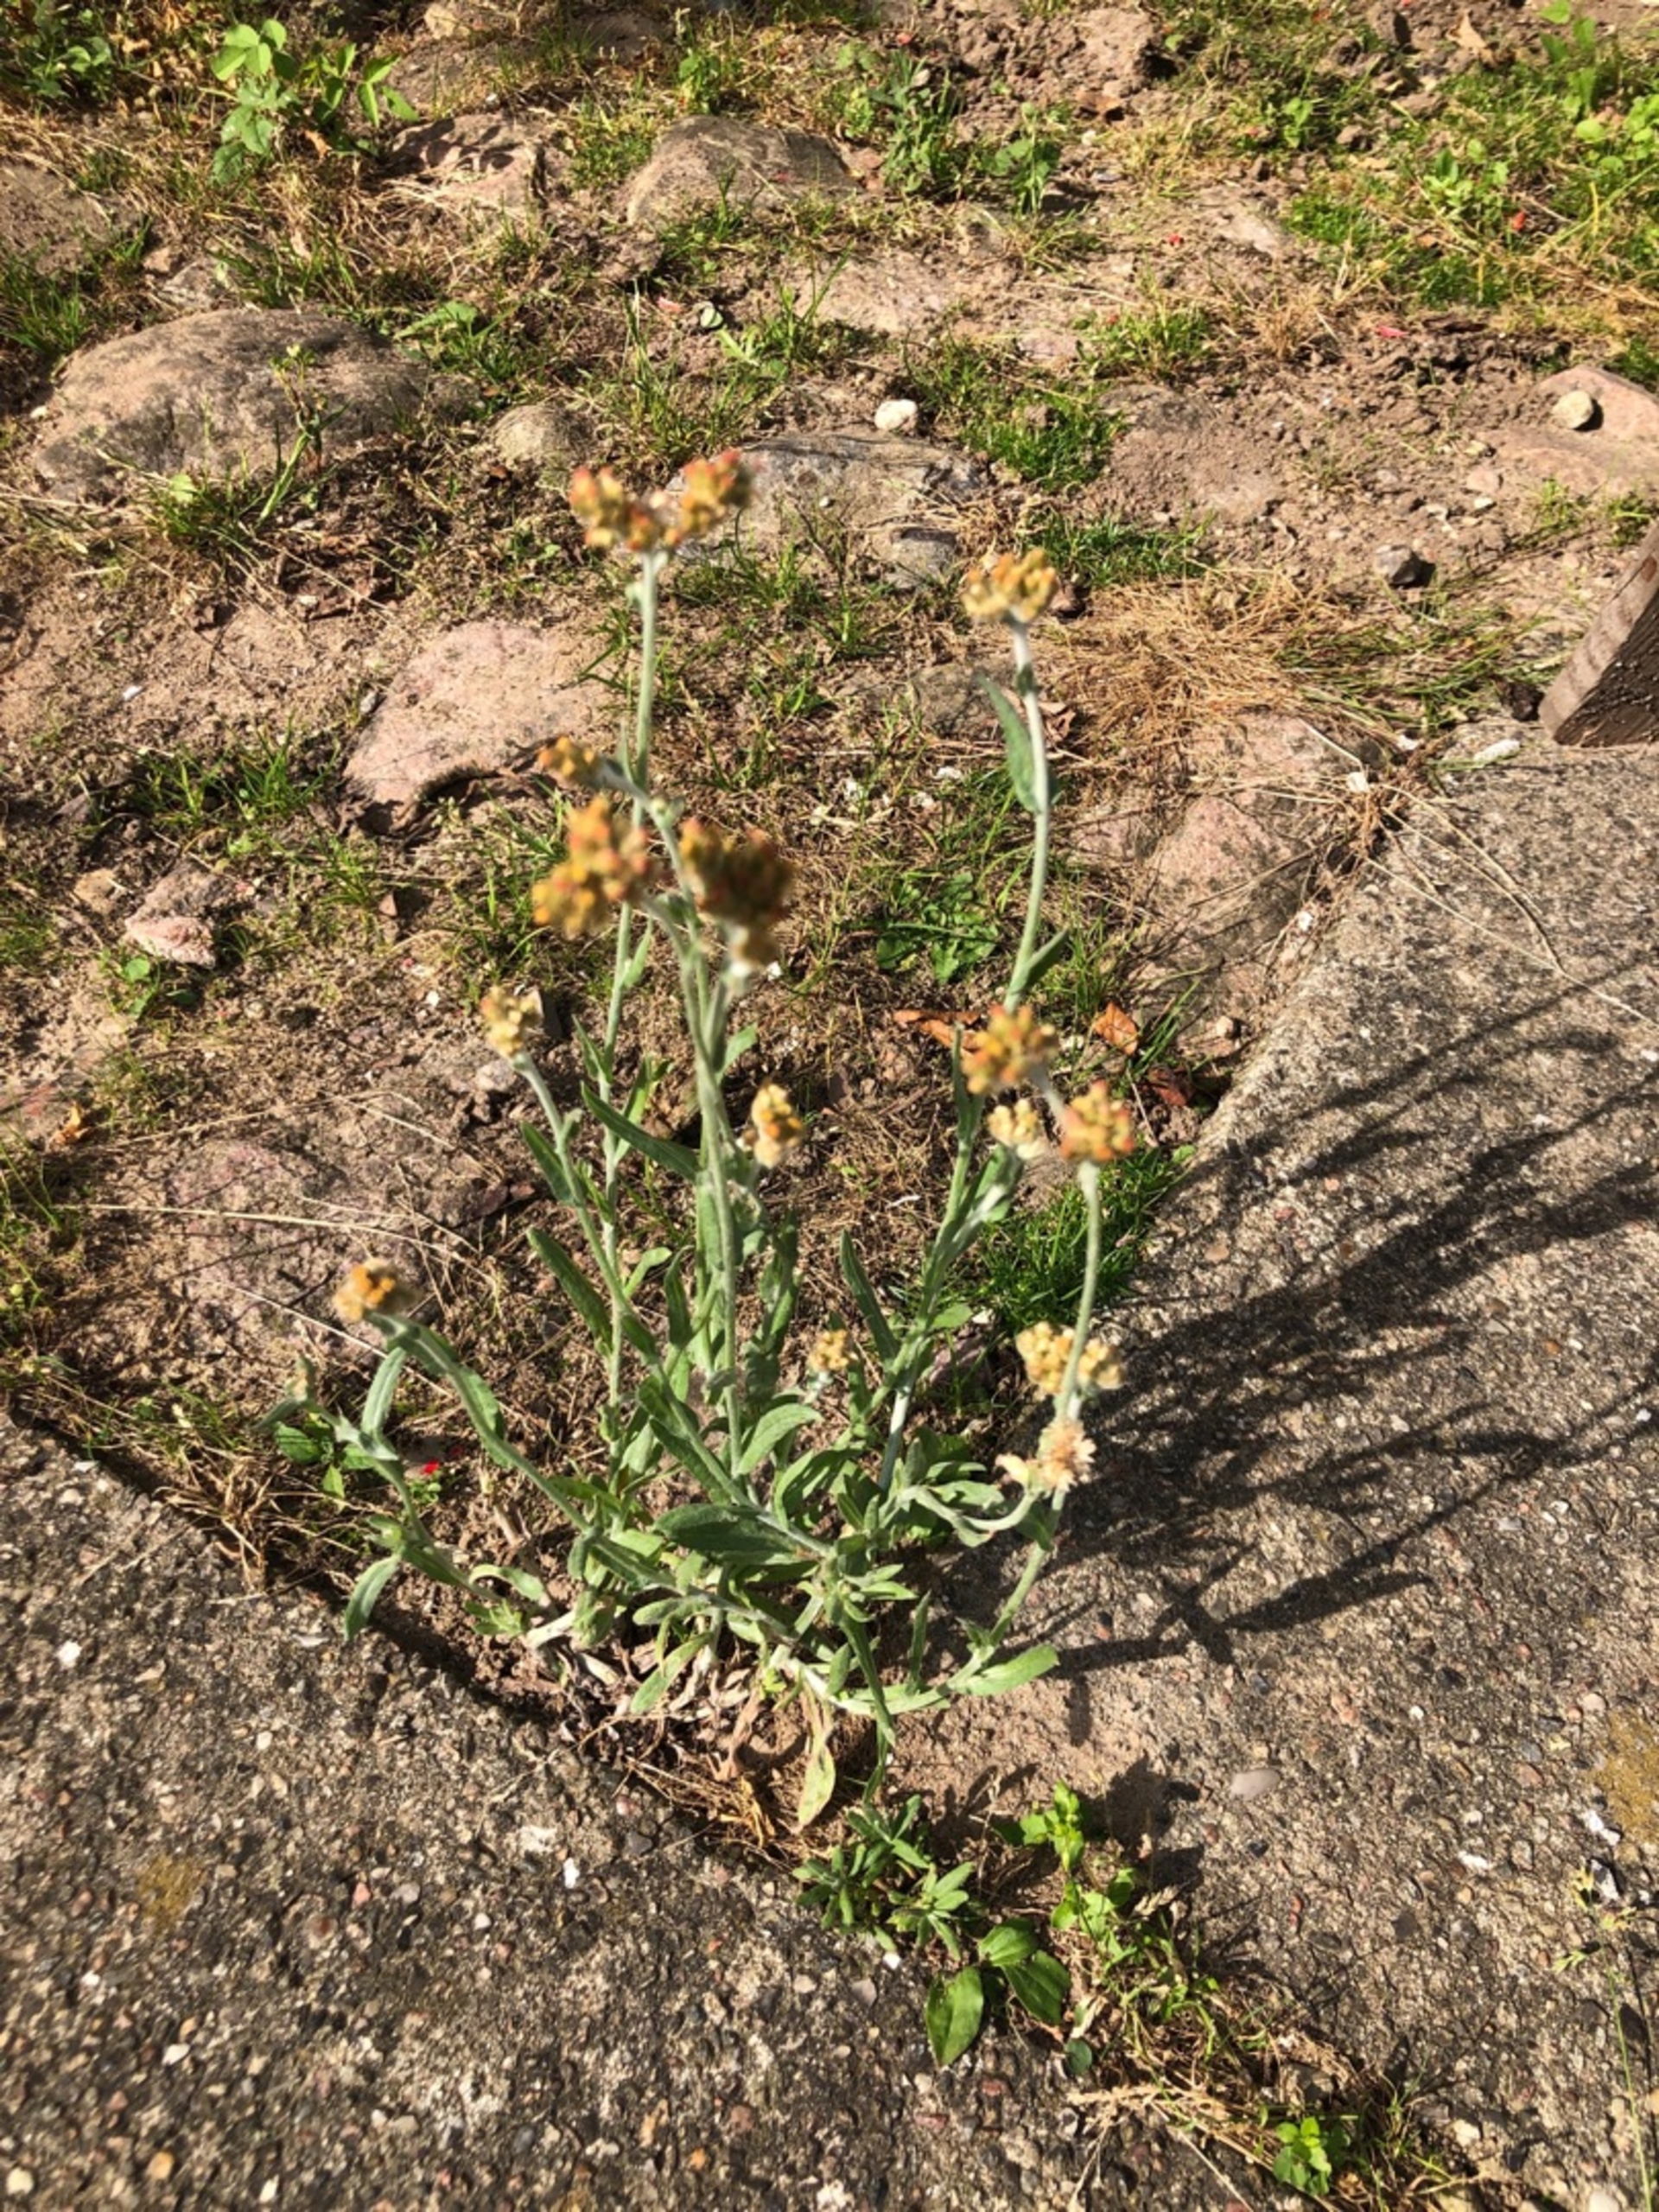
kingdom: Plantae
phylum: Tracheophyta
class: Magnoliopsida
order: Asterales
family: Asteraceae
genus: Helichrysum
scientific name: Helichrysum luteoalbum
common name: Gulhvid evighedsblomst
